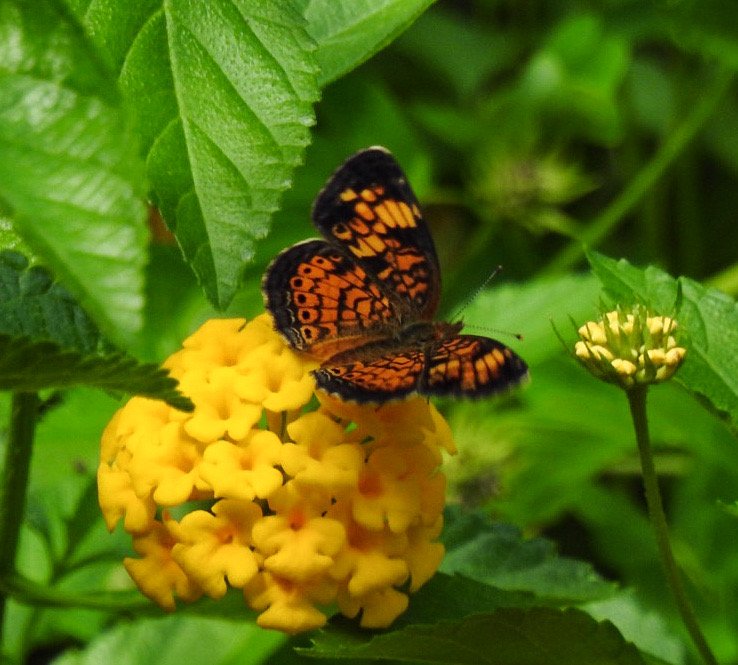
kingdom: Animalia
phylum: Arthropoda
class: Insecta
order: Lepidoptera
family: Nymphalidae
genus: Phyciodes
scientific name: Phyciodes tharos
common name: Pearl Crescent
